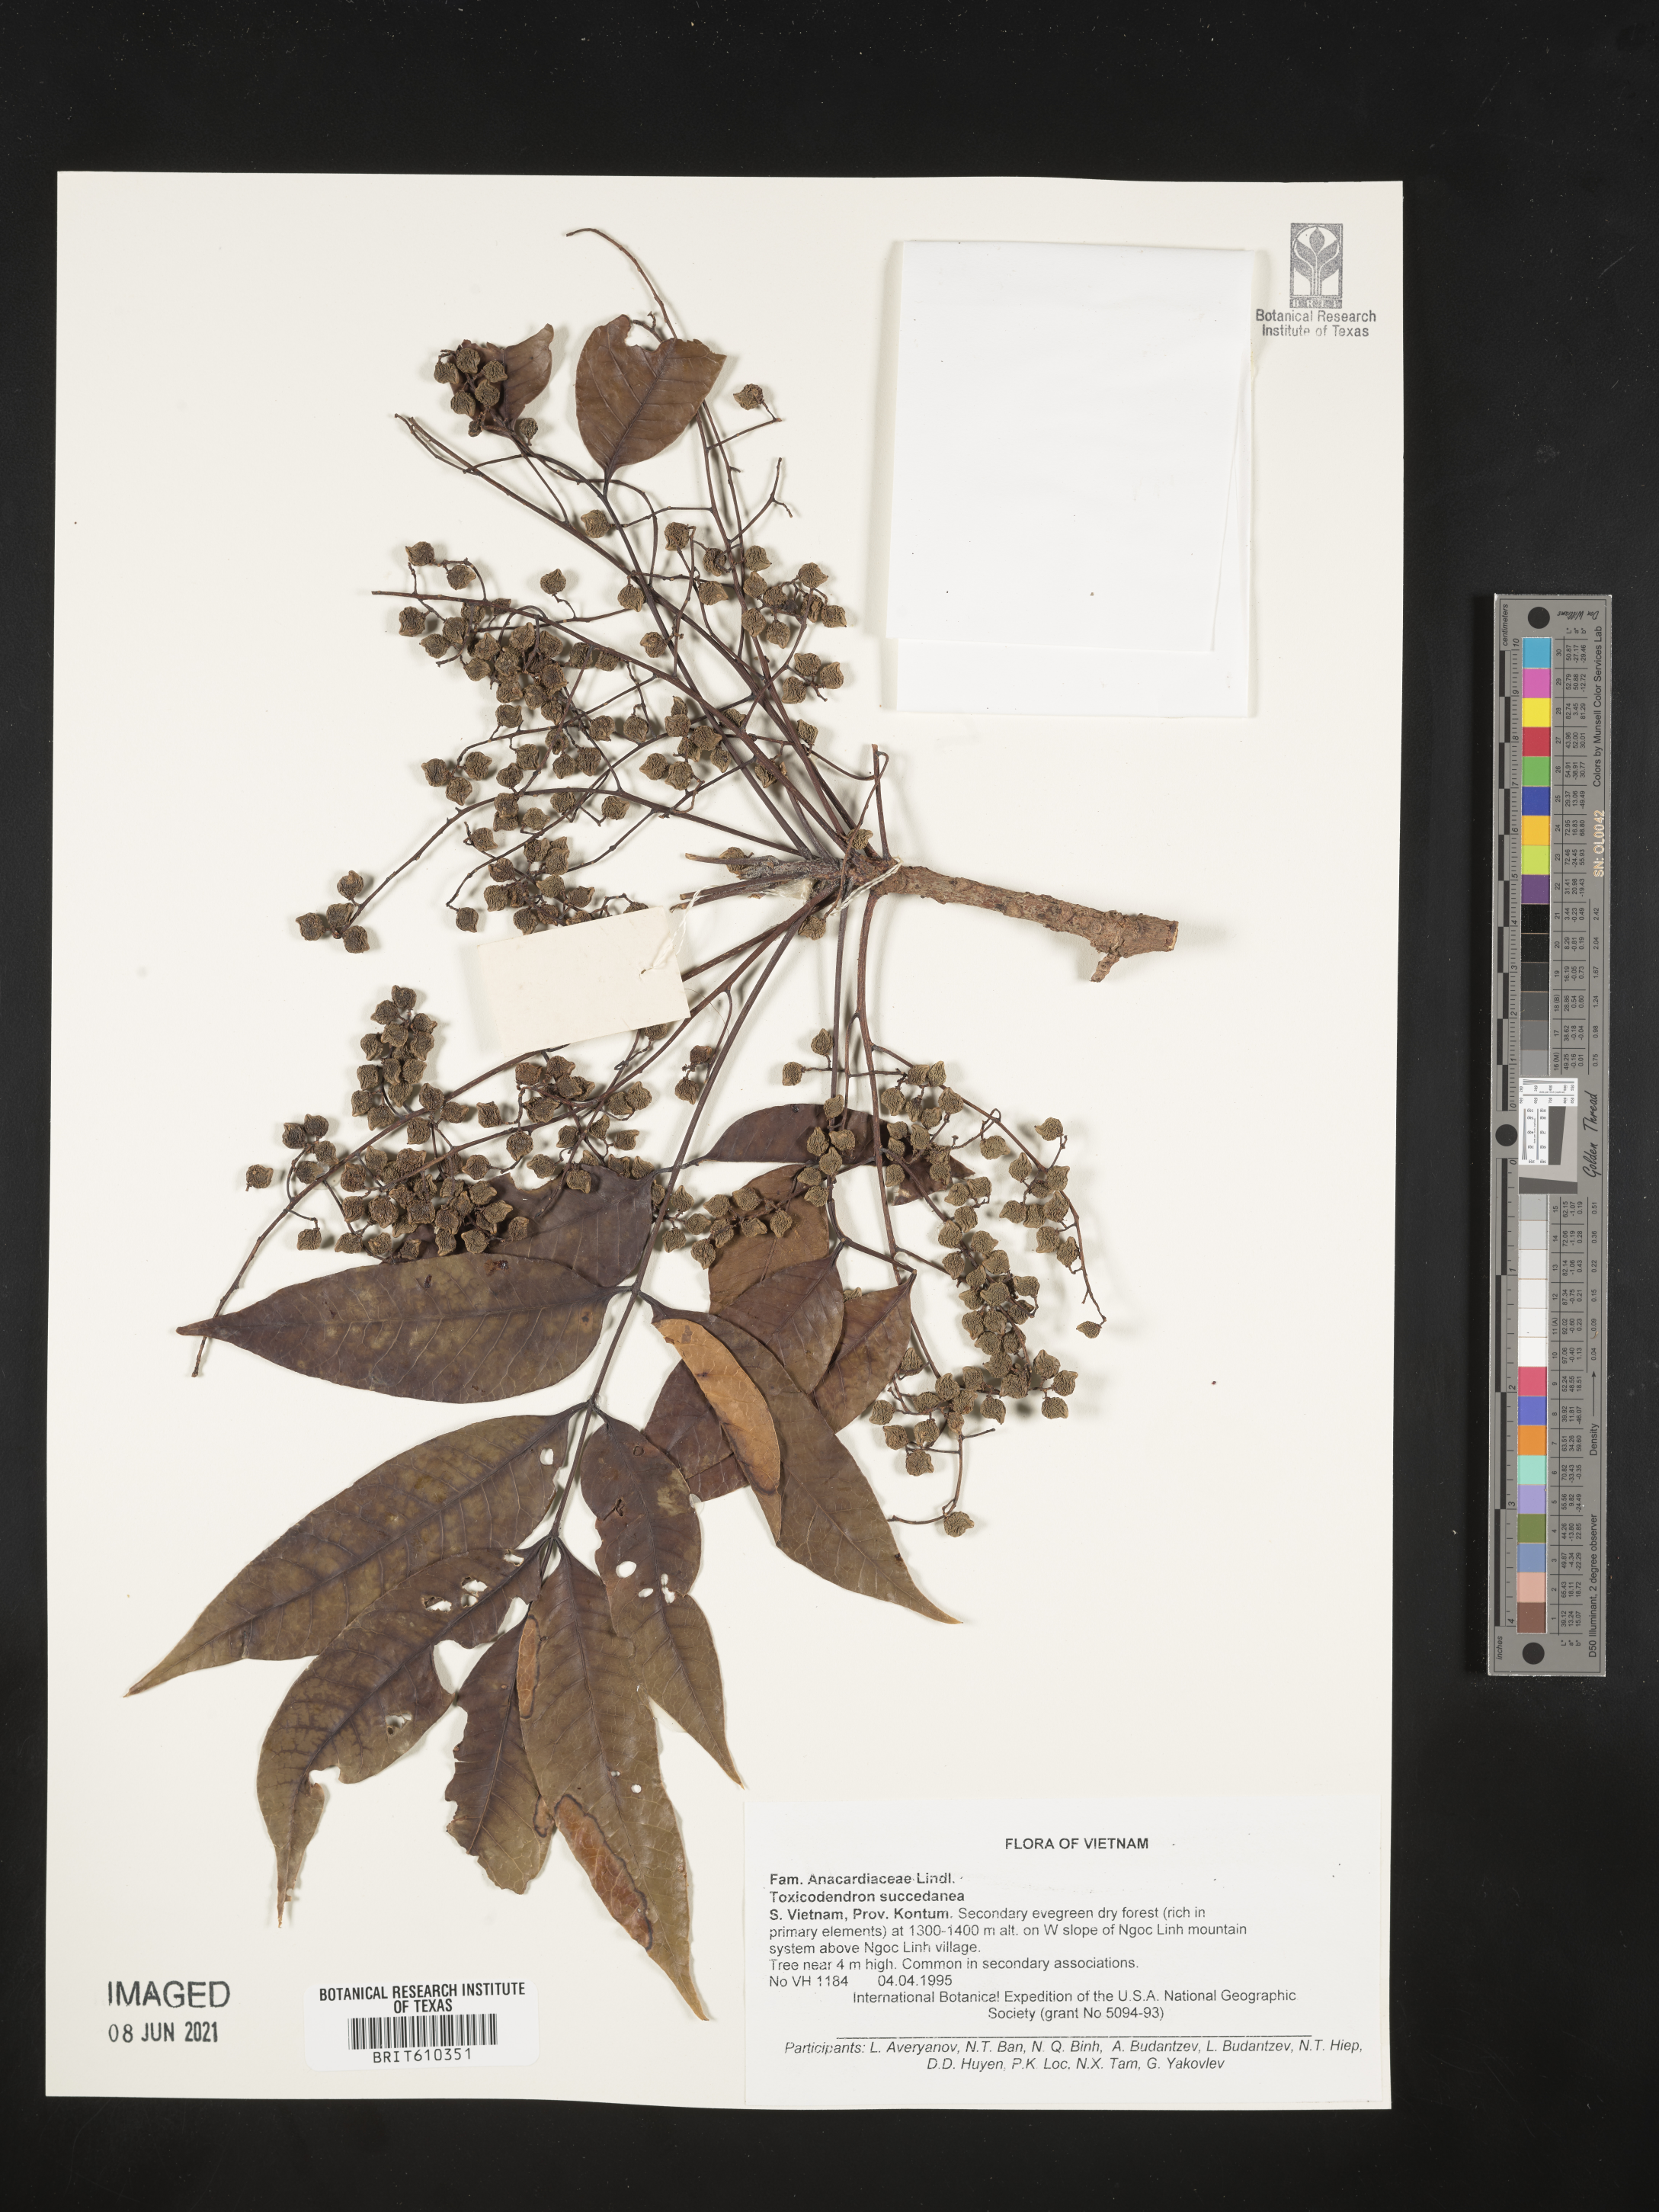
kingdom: Plantae
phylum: Tracheophyta
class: Magnoliopsida
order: Sapindales
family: Anacardiaceae
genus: Toxicodendron
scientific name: Toxicodendron succedaneum
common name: Wax tree
